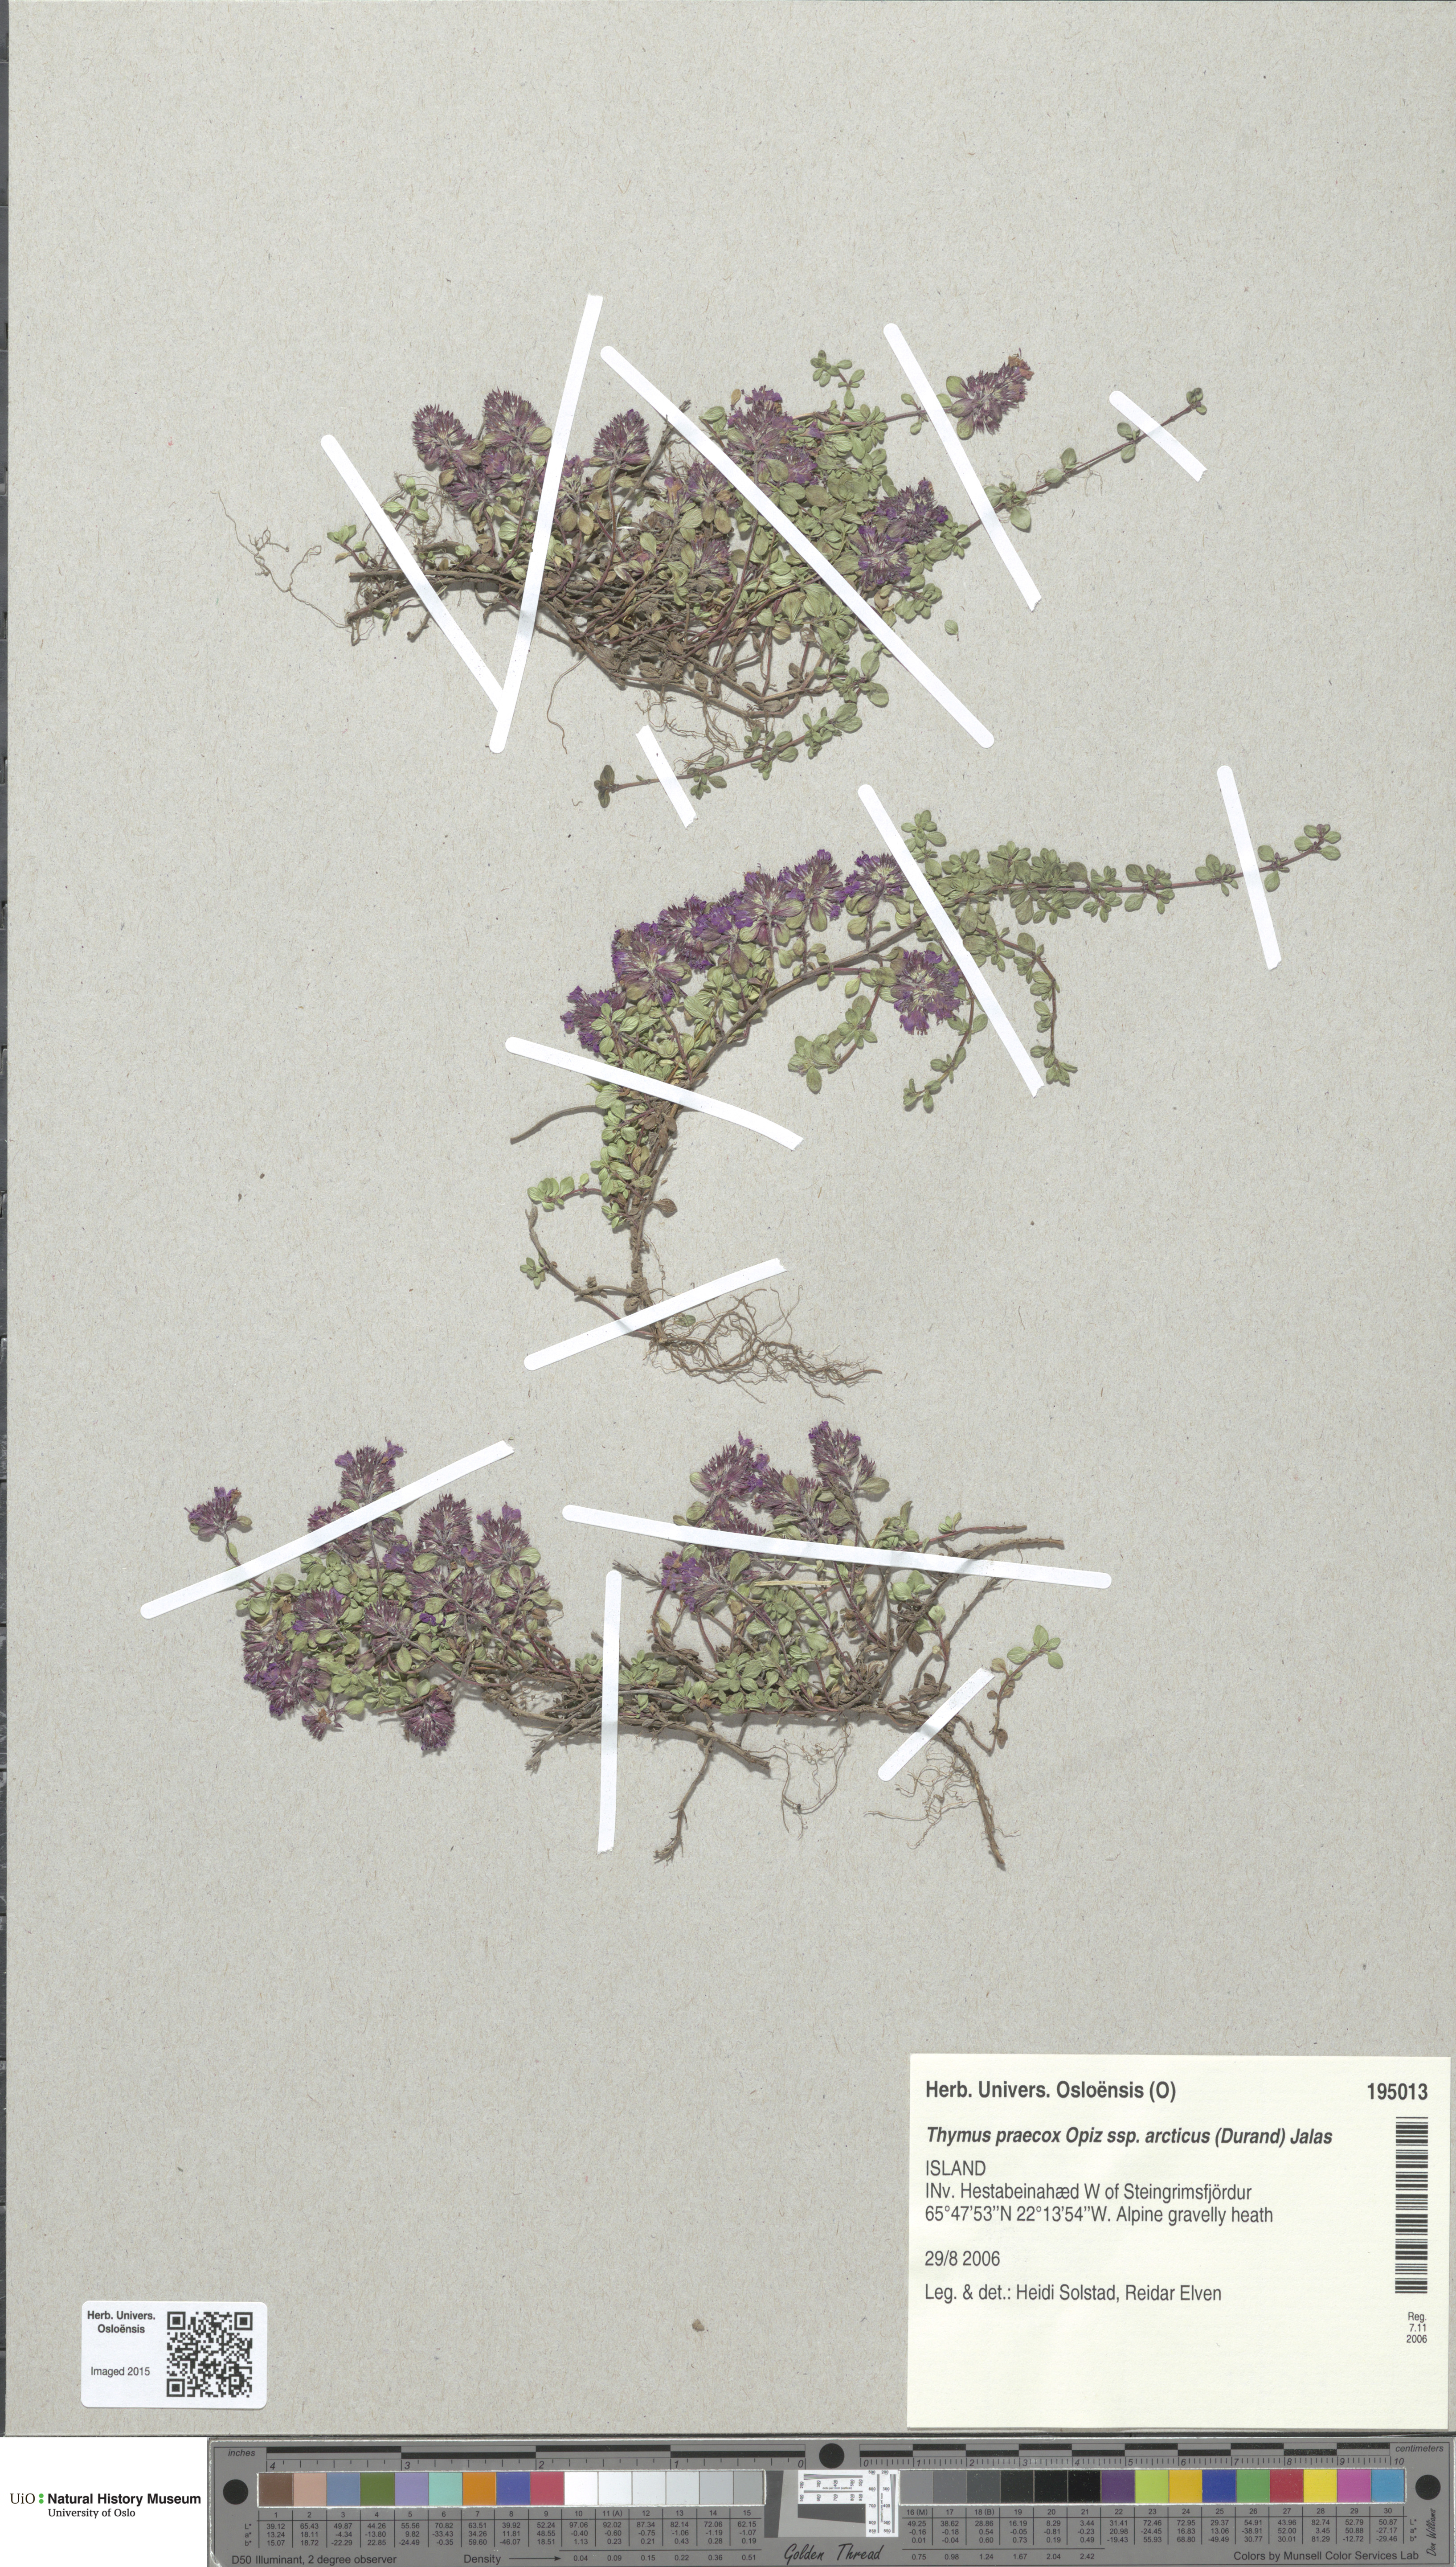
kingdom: Plantae
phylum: Tracheophyta
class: Magnoliopsida
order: Lamiales
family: Lamiaceae
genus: Thymus
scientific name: Thymus praecox
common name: Wild thyme
